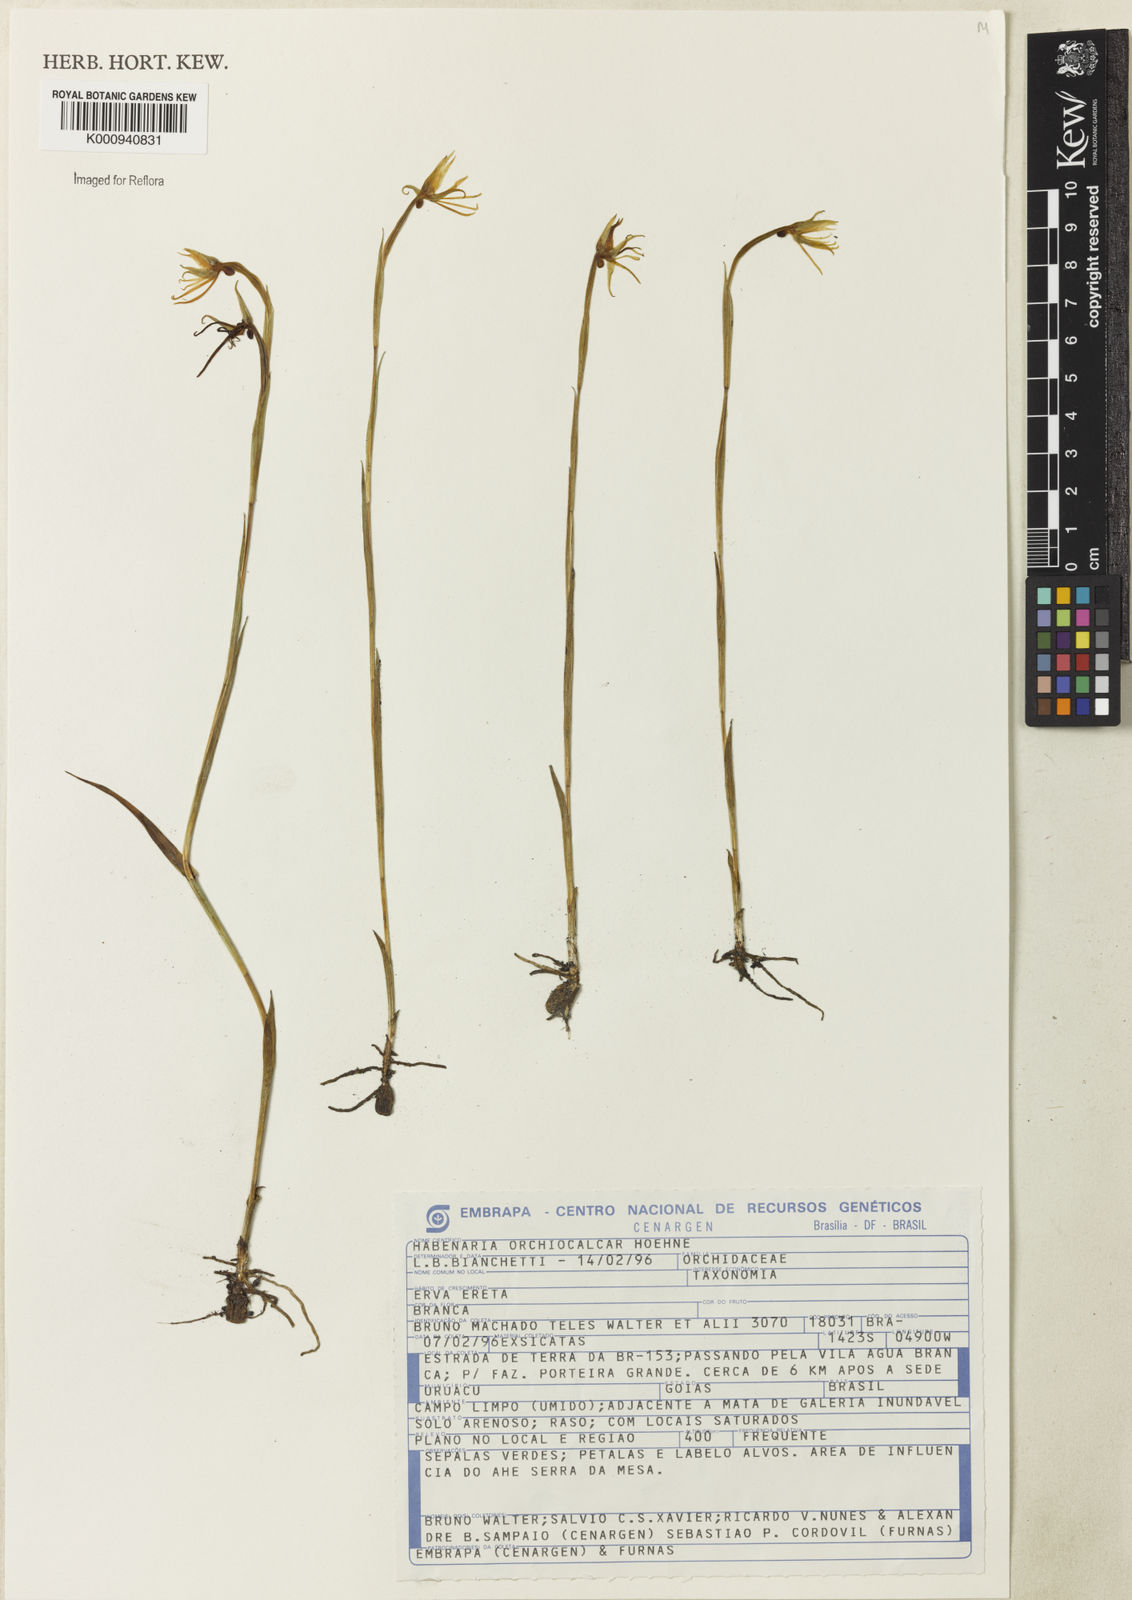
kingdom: Plantae
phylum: Tracheophyta
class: Liliopsida
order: Asparagales
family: Orchidaceae
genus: Habenaria
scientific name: Habenaria orchiocalcar
